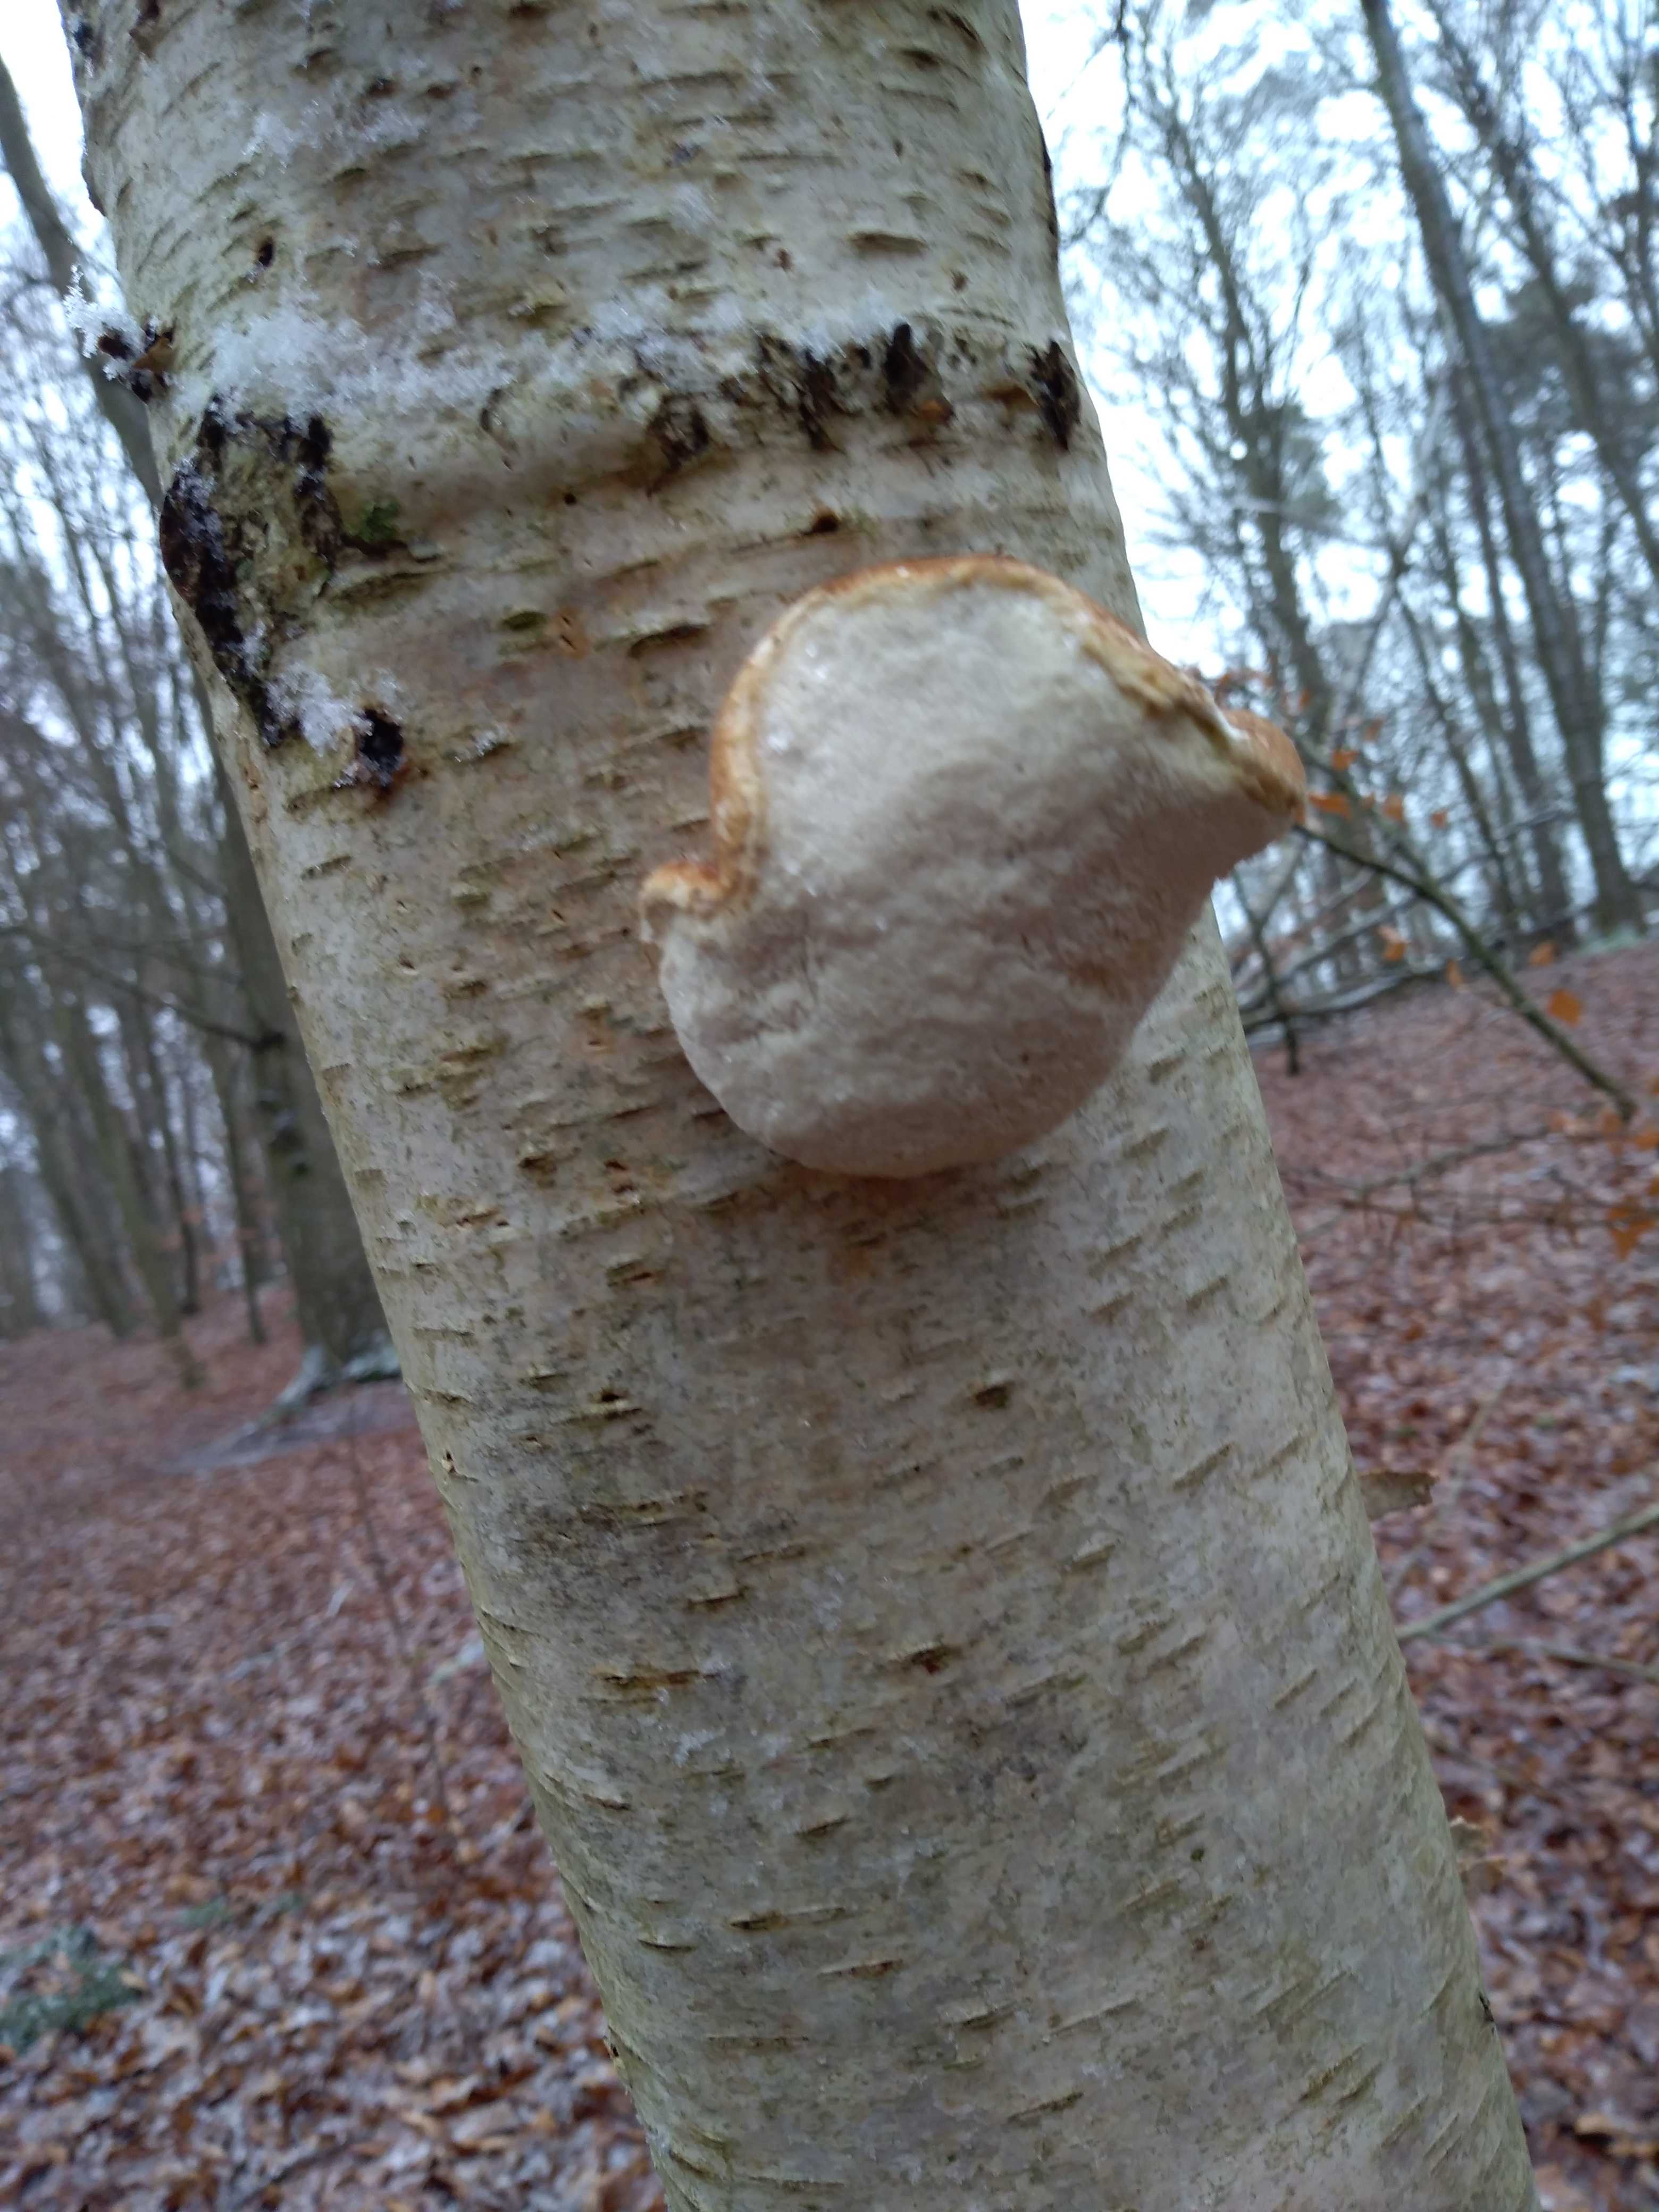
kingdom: Fungi
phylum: Basidiomycota
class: Agaricomycetes
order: Polyporales
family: Fomitopsidaceae
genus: Fomitopsis
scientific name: Fomitopsis betulina
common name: birkeporesvamp
